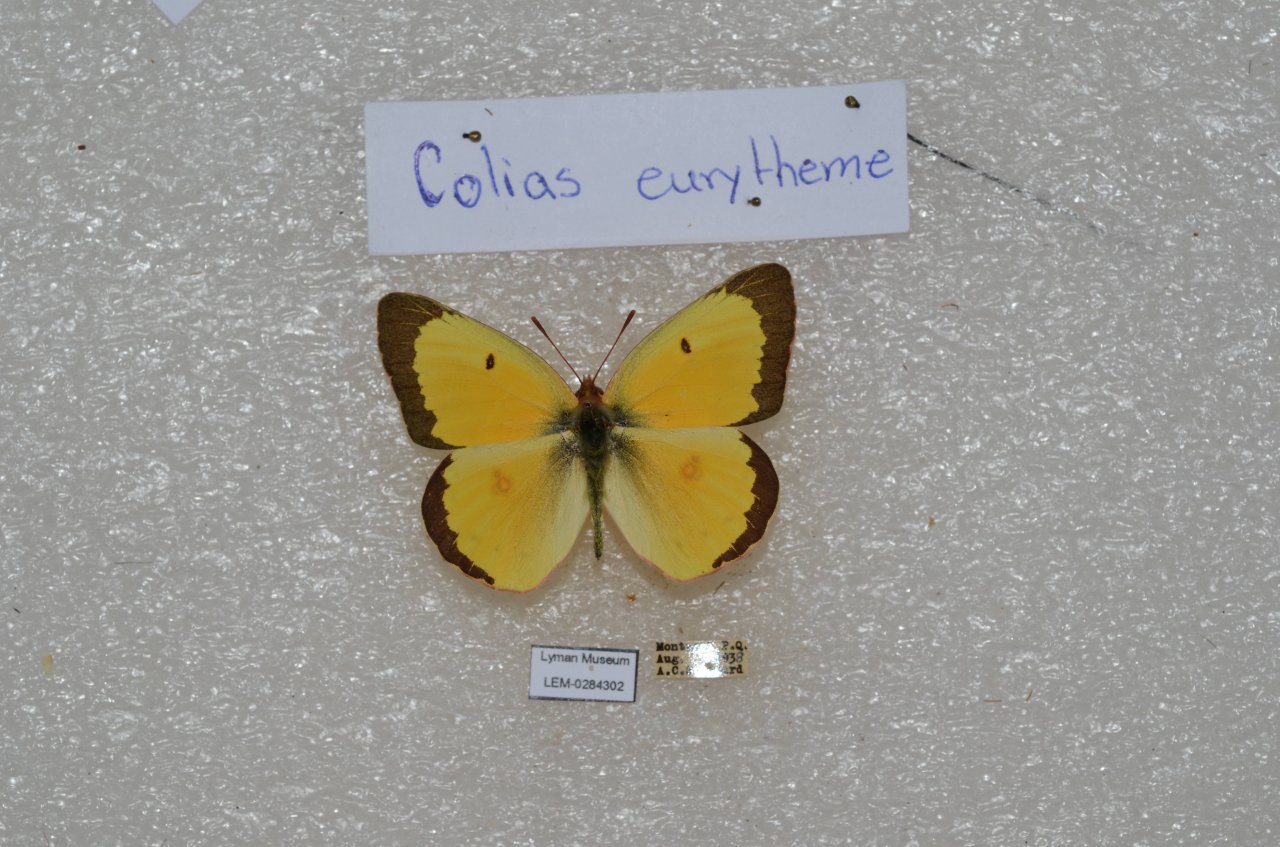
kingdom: Animalia
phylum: Arthropoda
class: Insecta
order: Lepidoptera
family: Pieridae
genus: Colias
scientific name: Colias eurytheme
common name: Orange Sulphur
